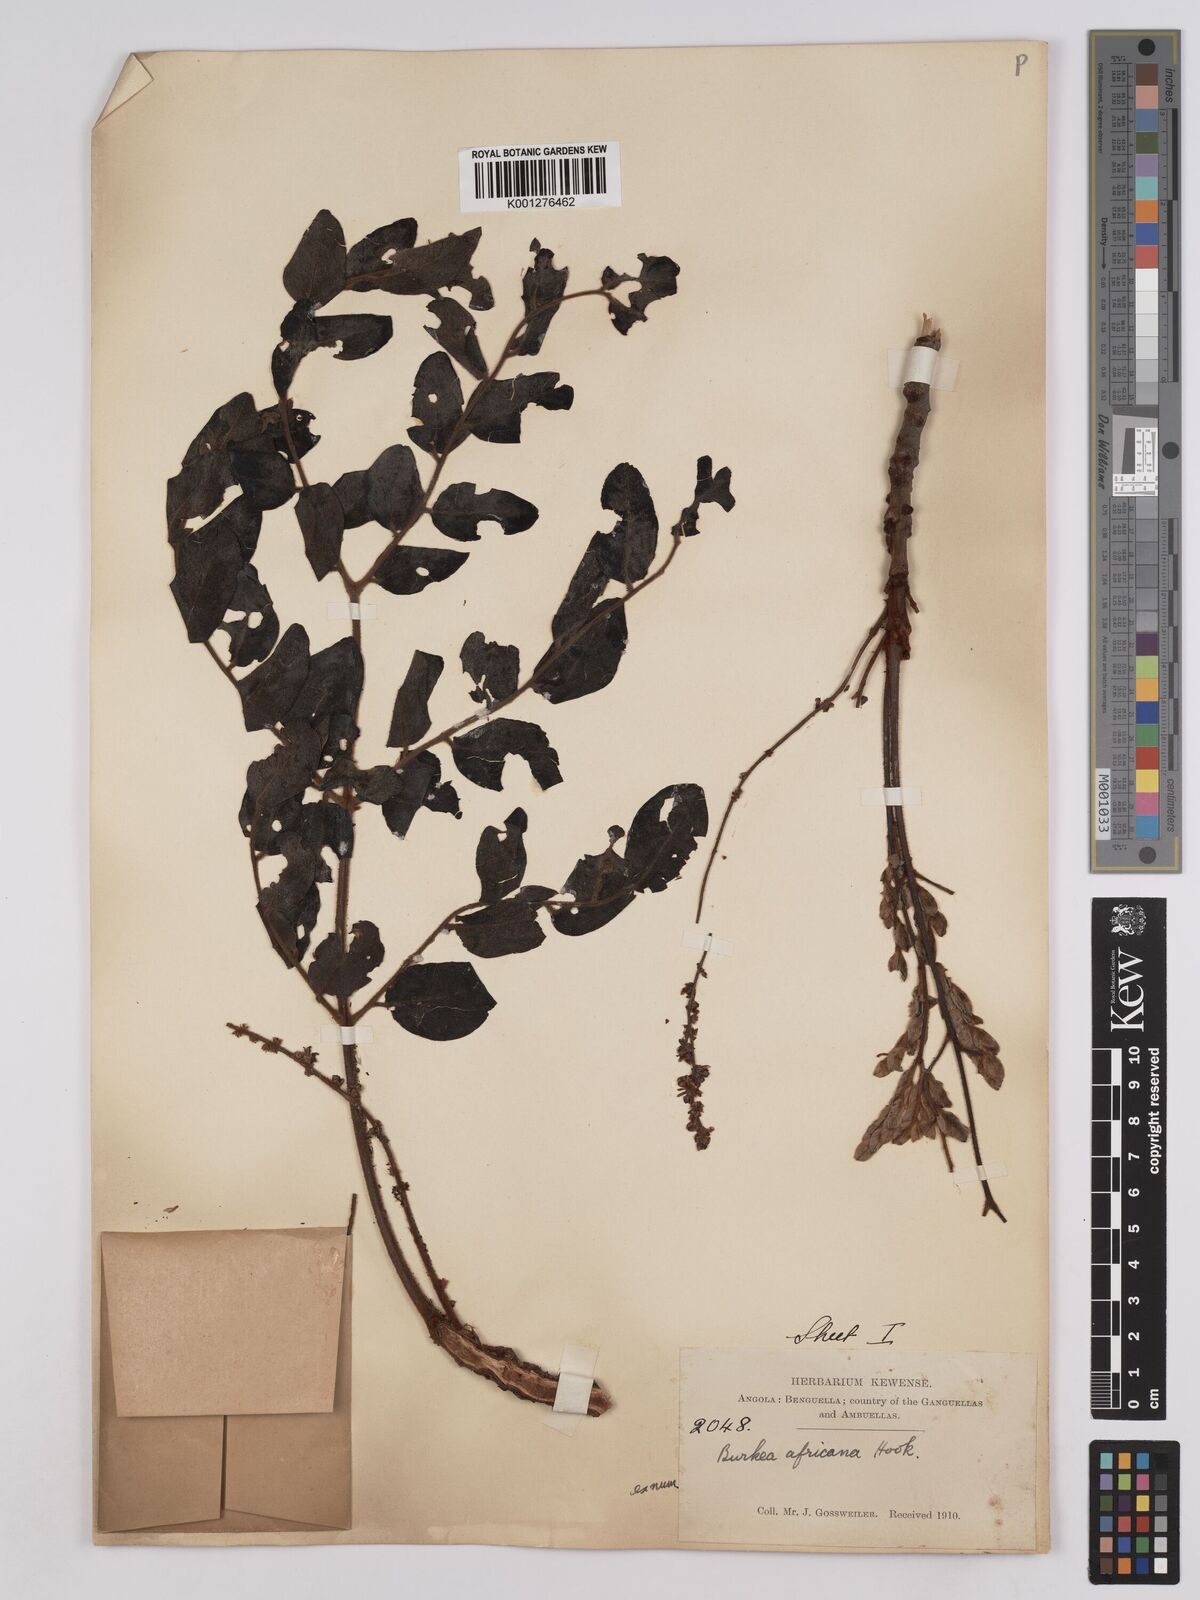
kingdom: Plantae
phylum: Tracheophyta
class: Magnoliopsida
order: Fabales
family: Fabaceae
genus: Burkea
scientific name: Burkea africana
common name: Mkalati tree
